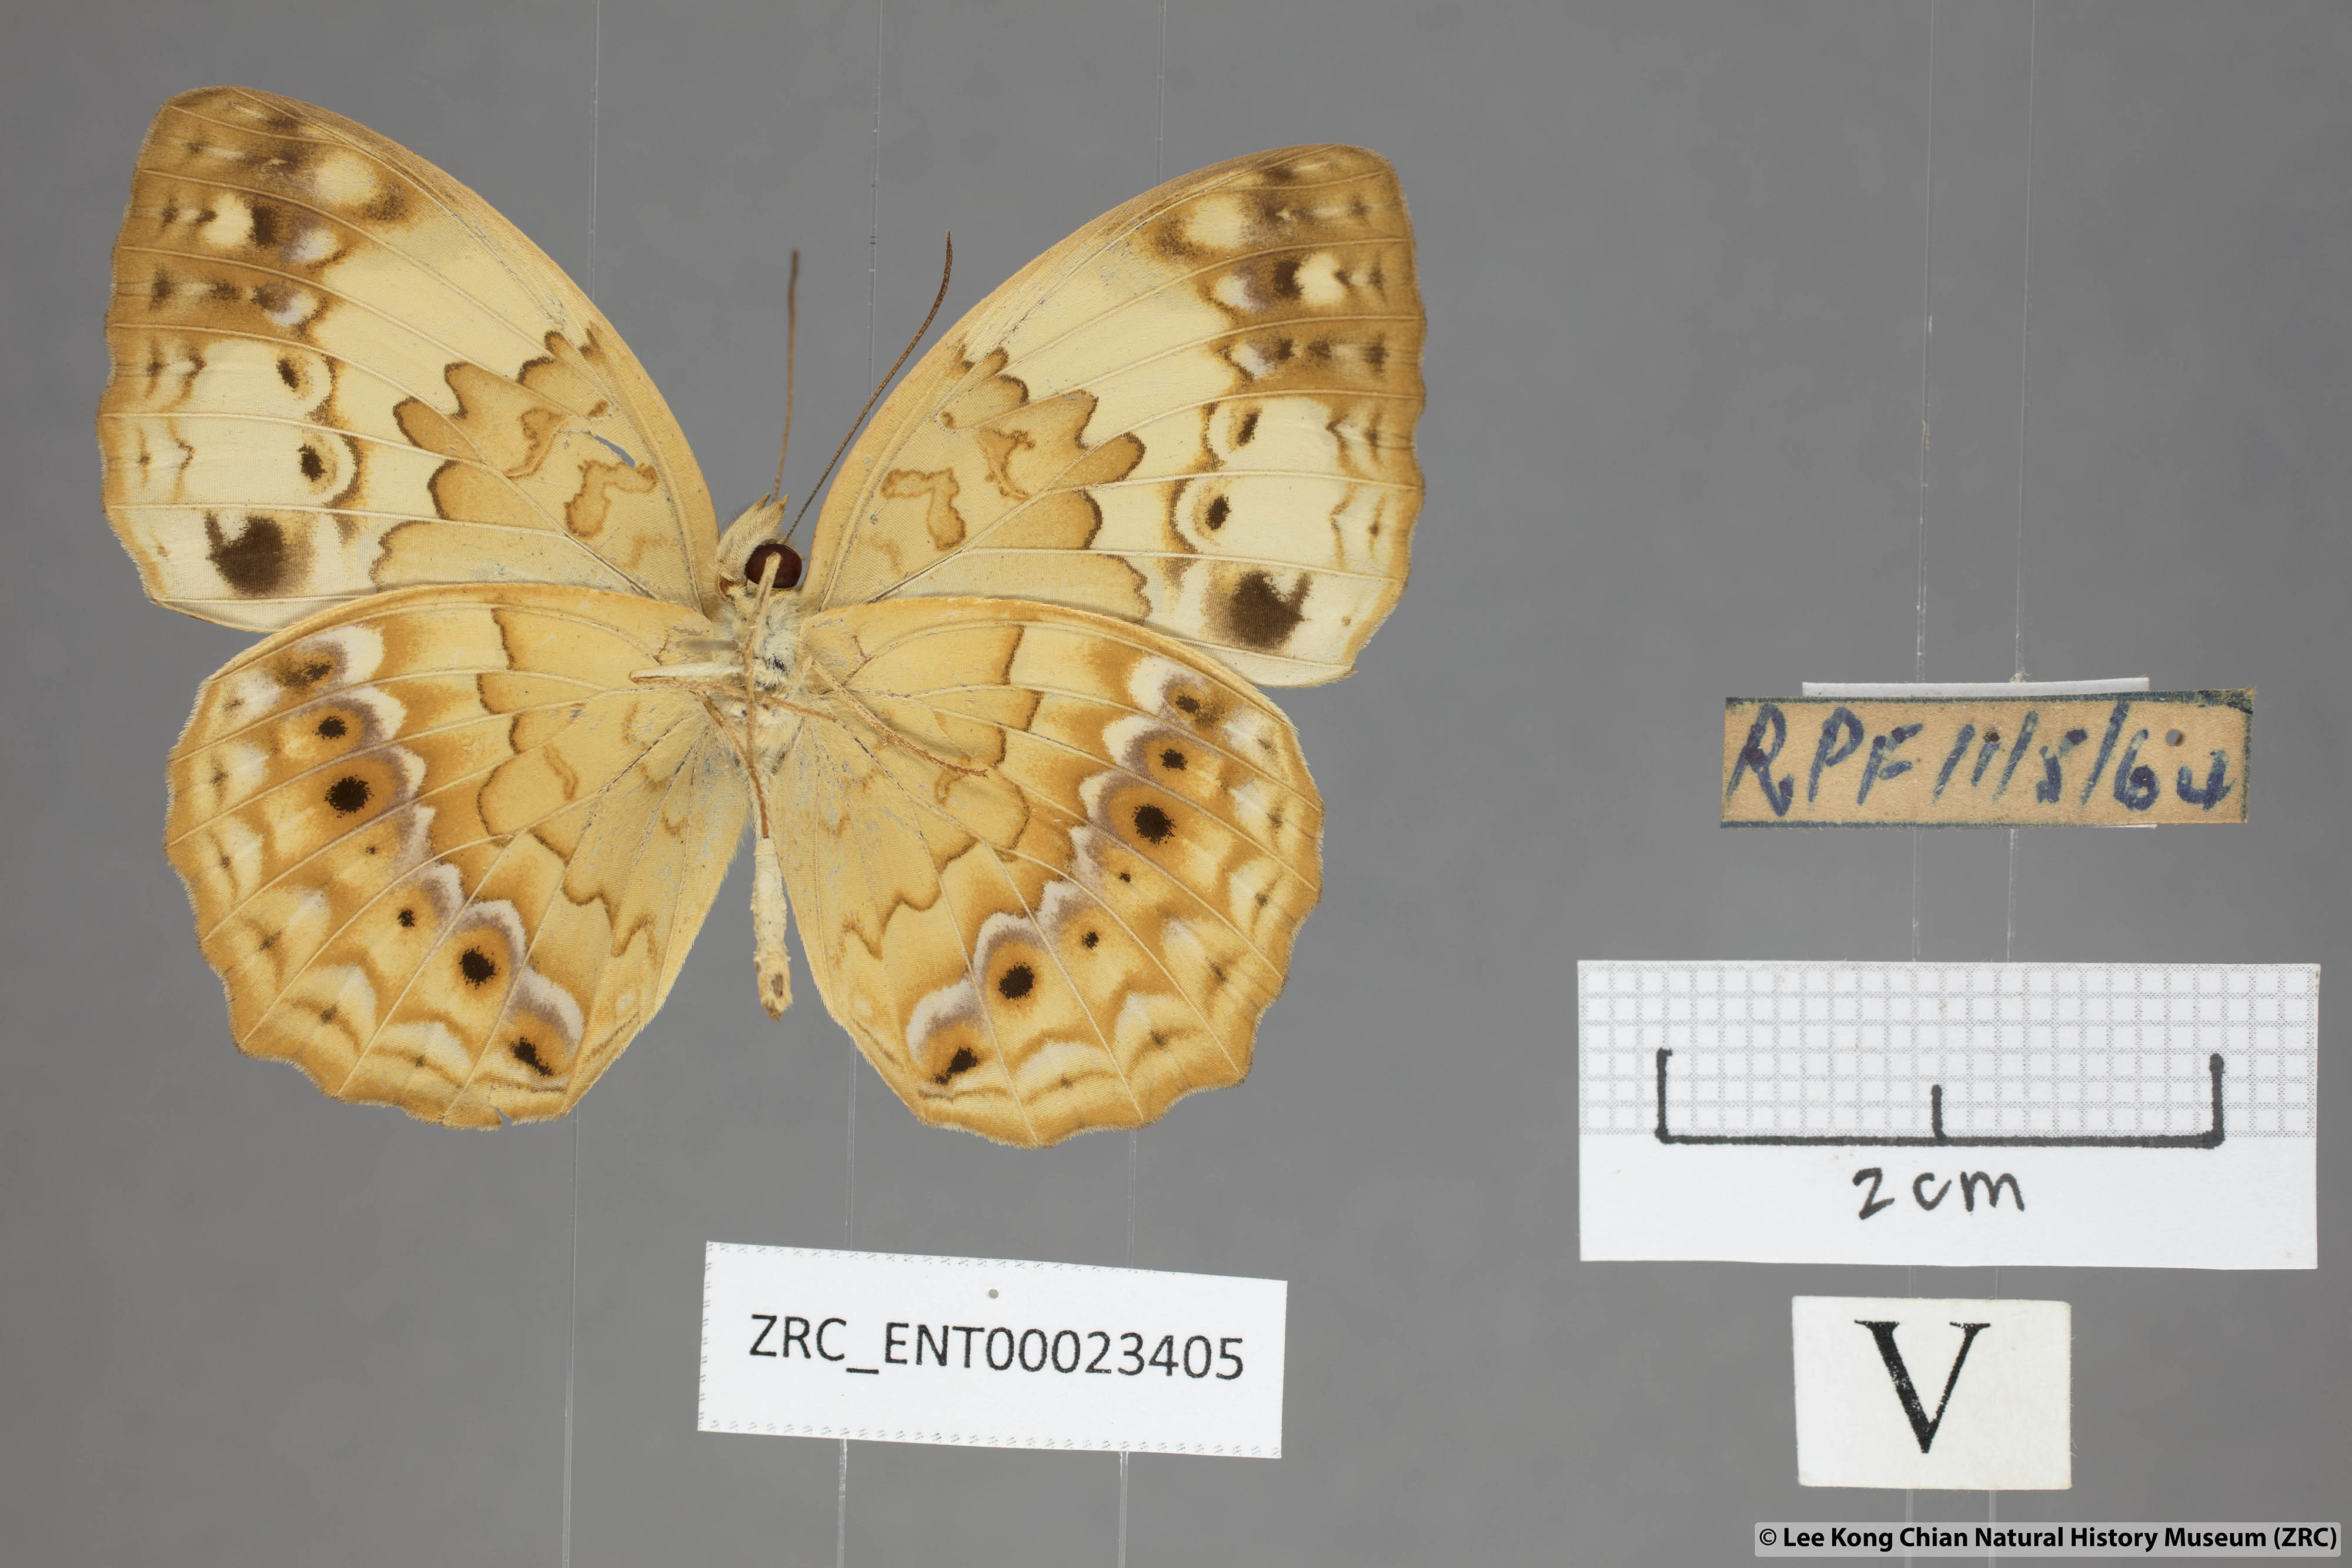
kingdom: Animalia
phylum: Arthropoda
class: Insecta
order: Lepidoptera
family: Nymphalidae
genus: Cupha
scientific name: Cupha erymanthis
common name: Rustic
